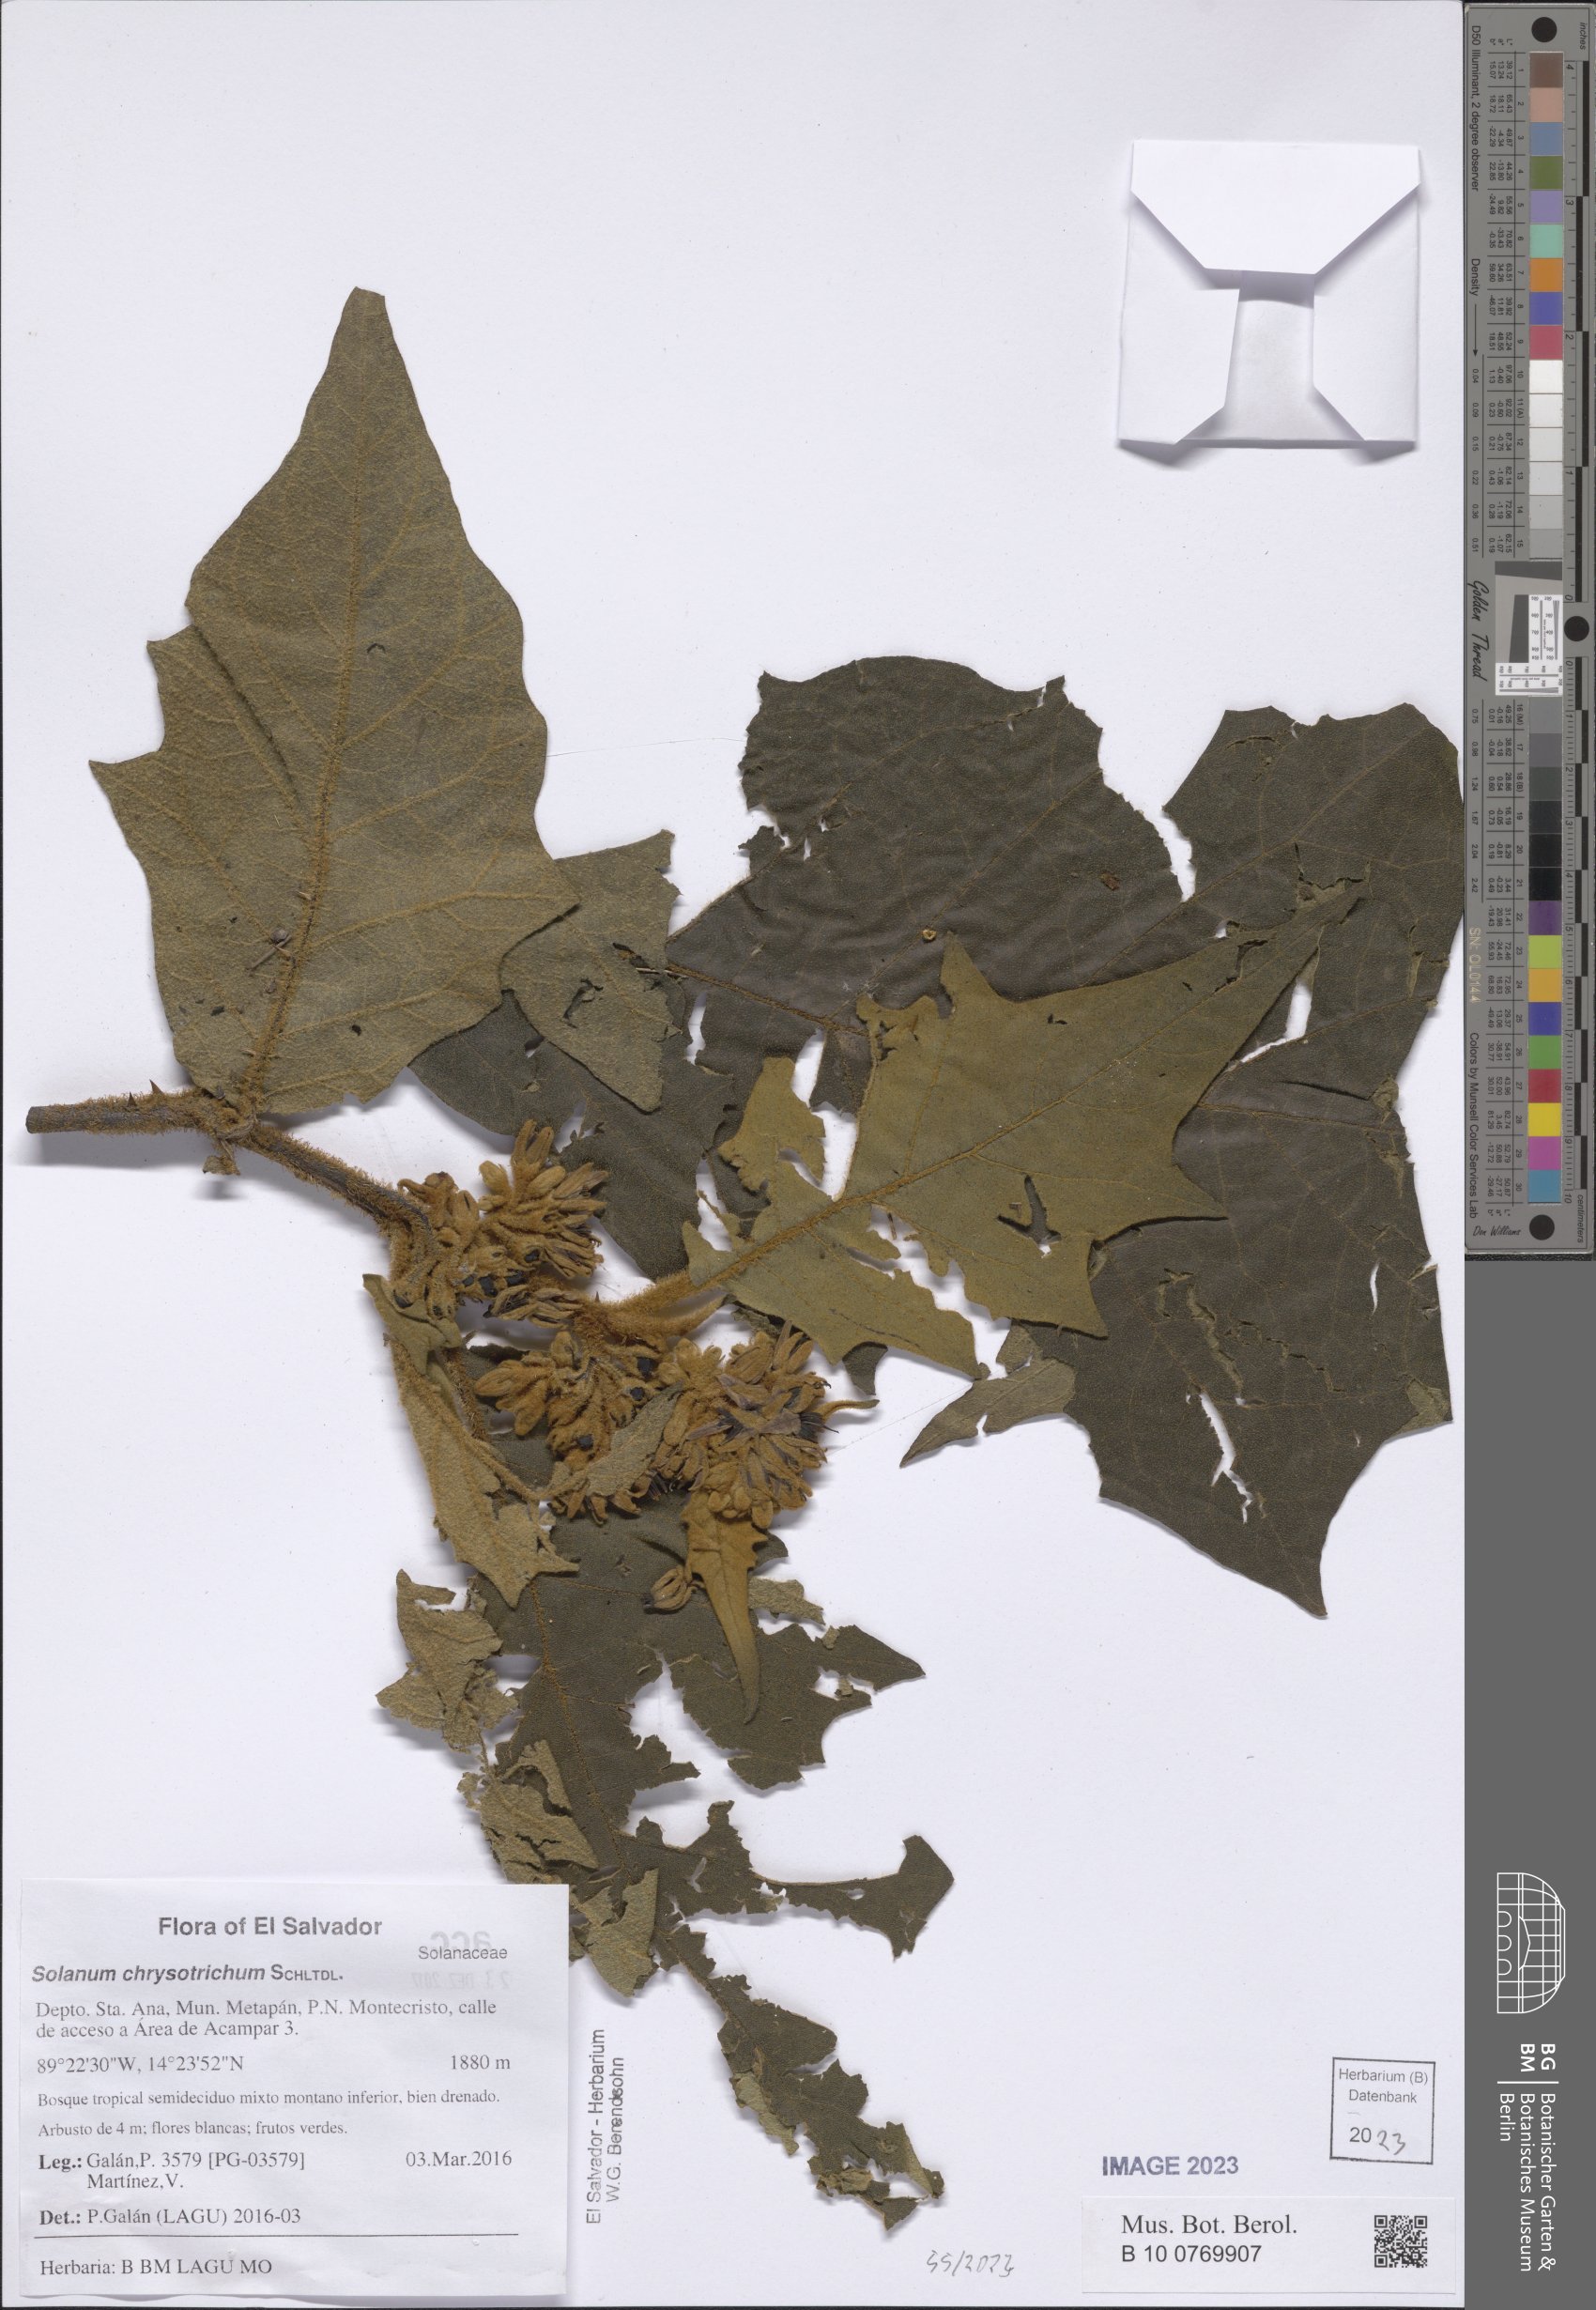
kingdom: Plantae
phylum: Tracheophyta
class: Magnoliopsida
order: Solanales
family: Solanaceae
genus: Solanum
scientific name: Solanum chrysotrichum
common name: Nightshade
